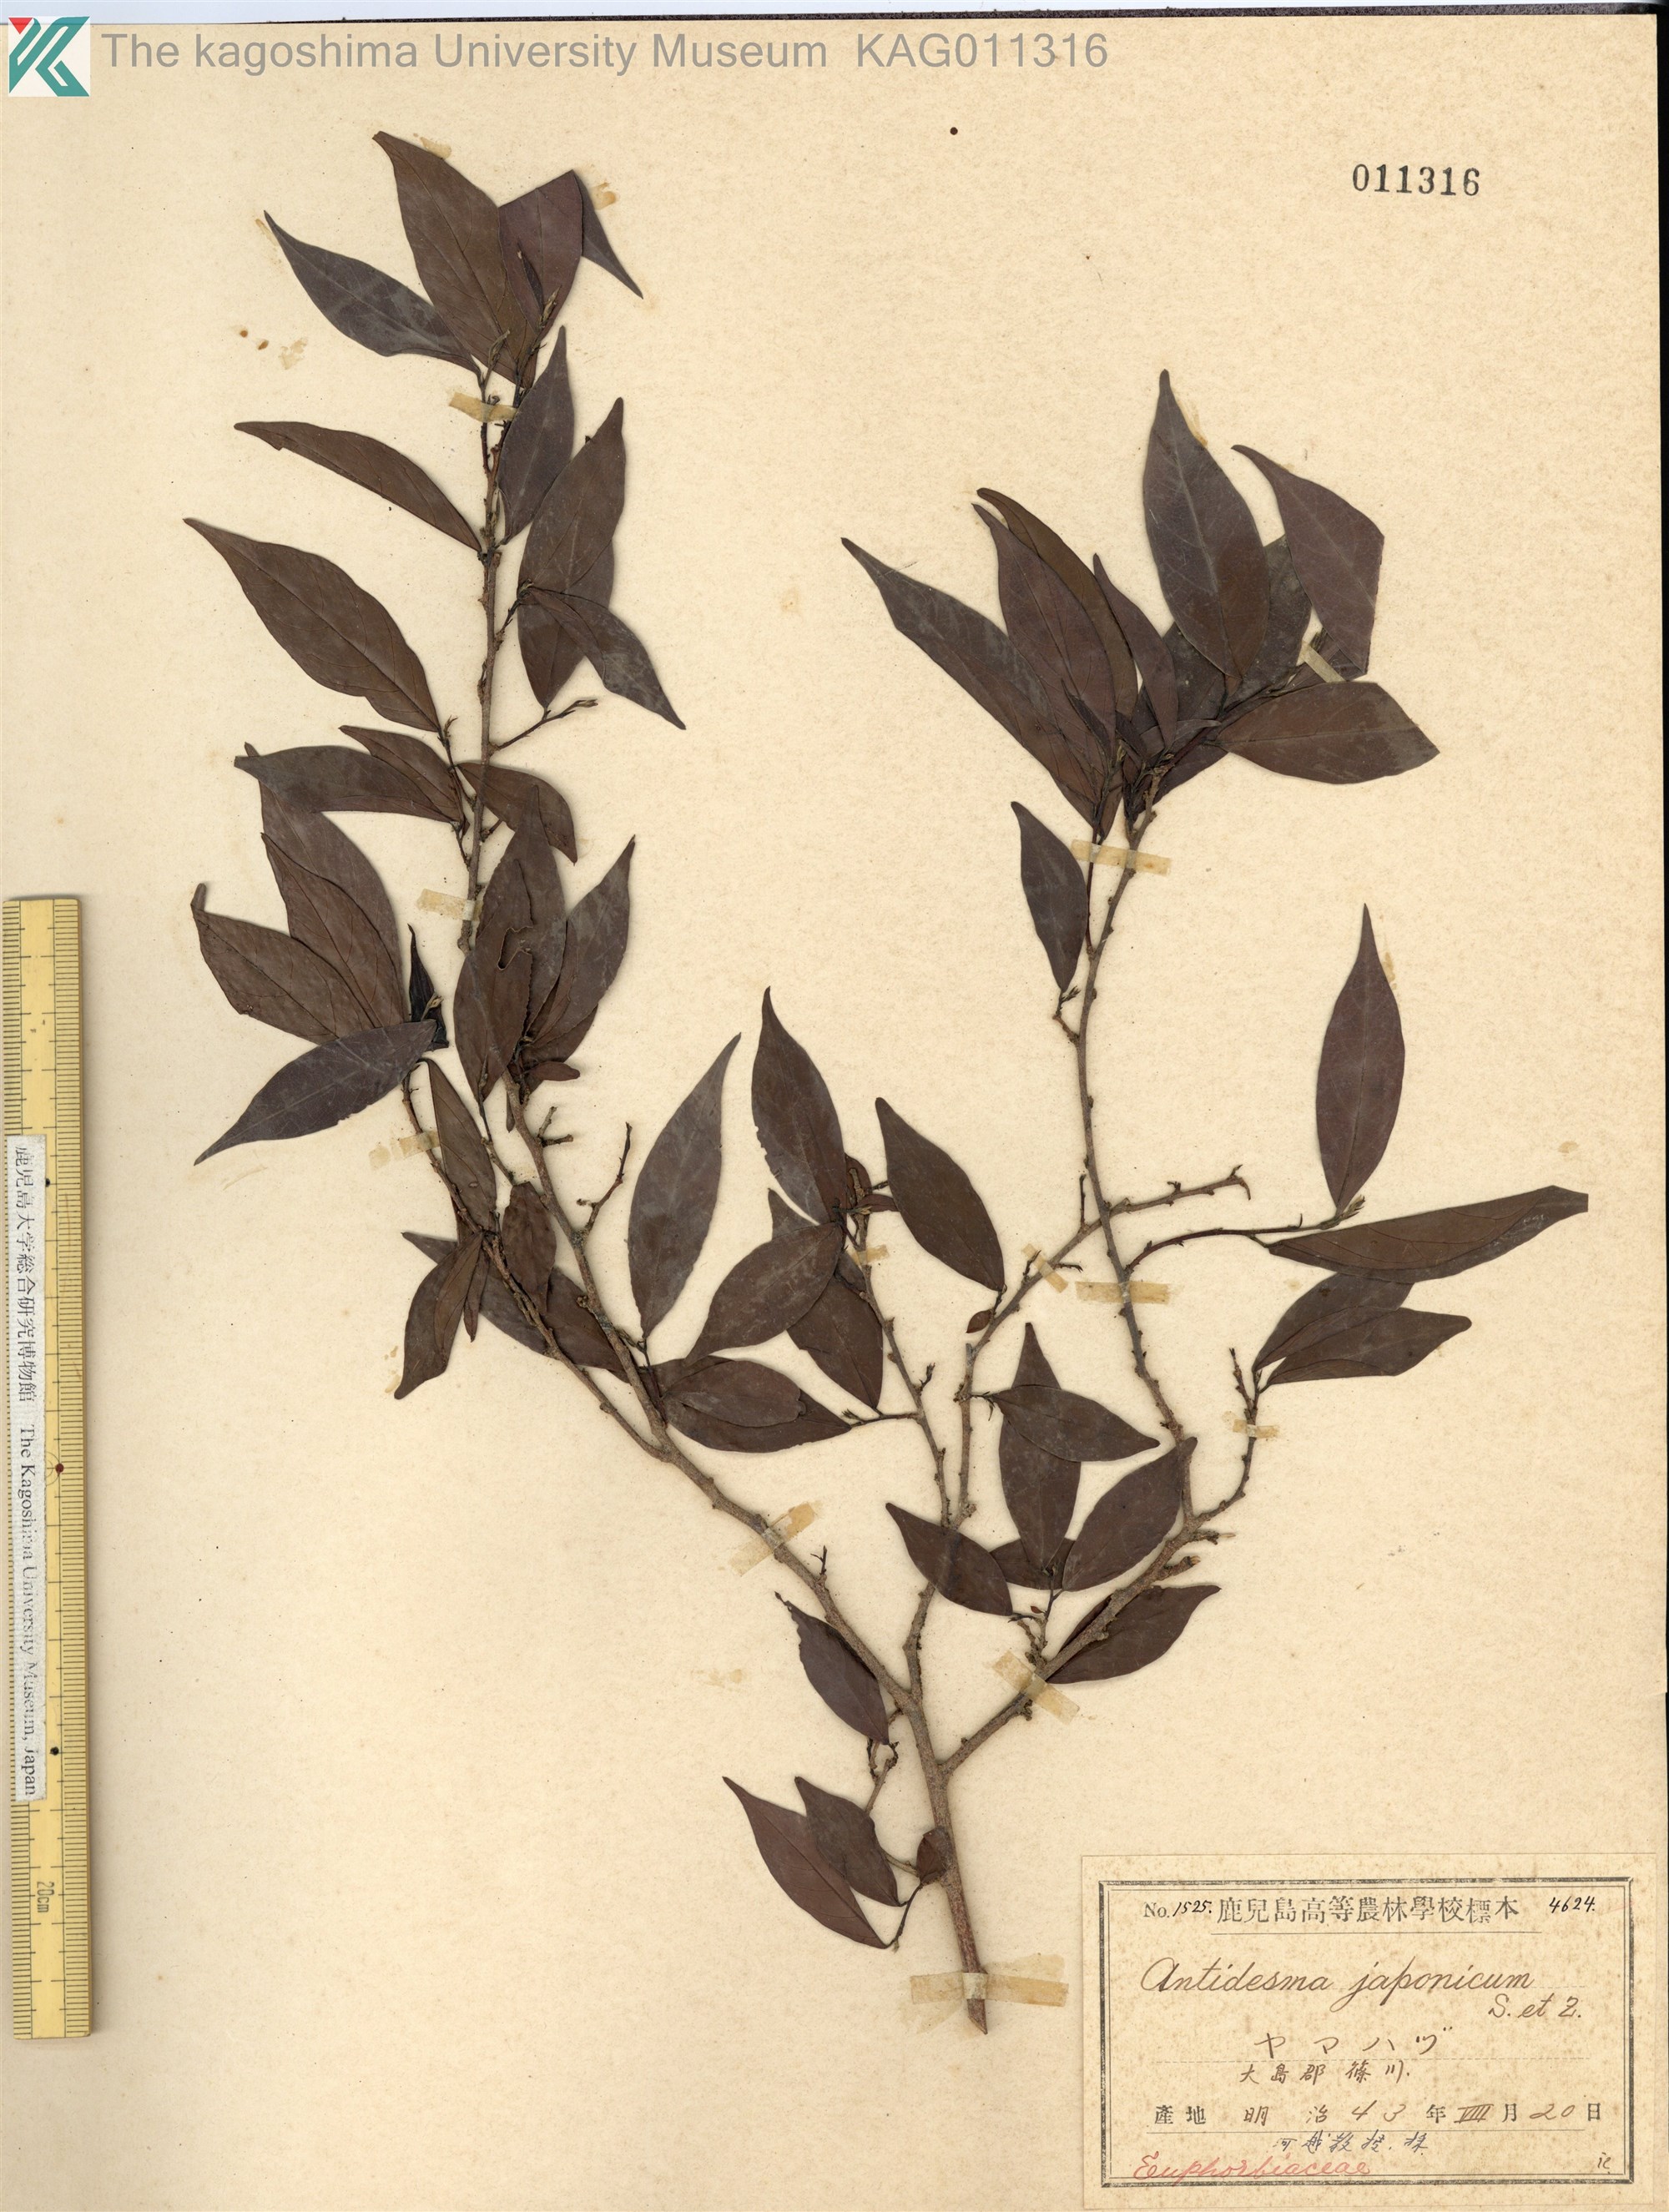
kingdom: Plantae
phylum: Tracheophyta
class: Magnoliopsida
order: Malpighiales
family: Phyllanthaceae
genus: Antidesma
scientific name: Antidesma japonicum
